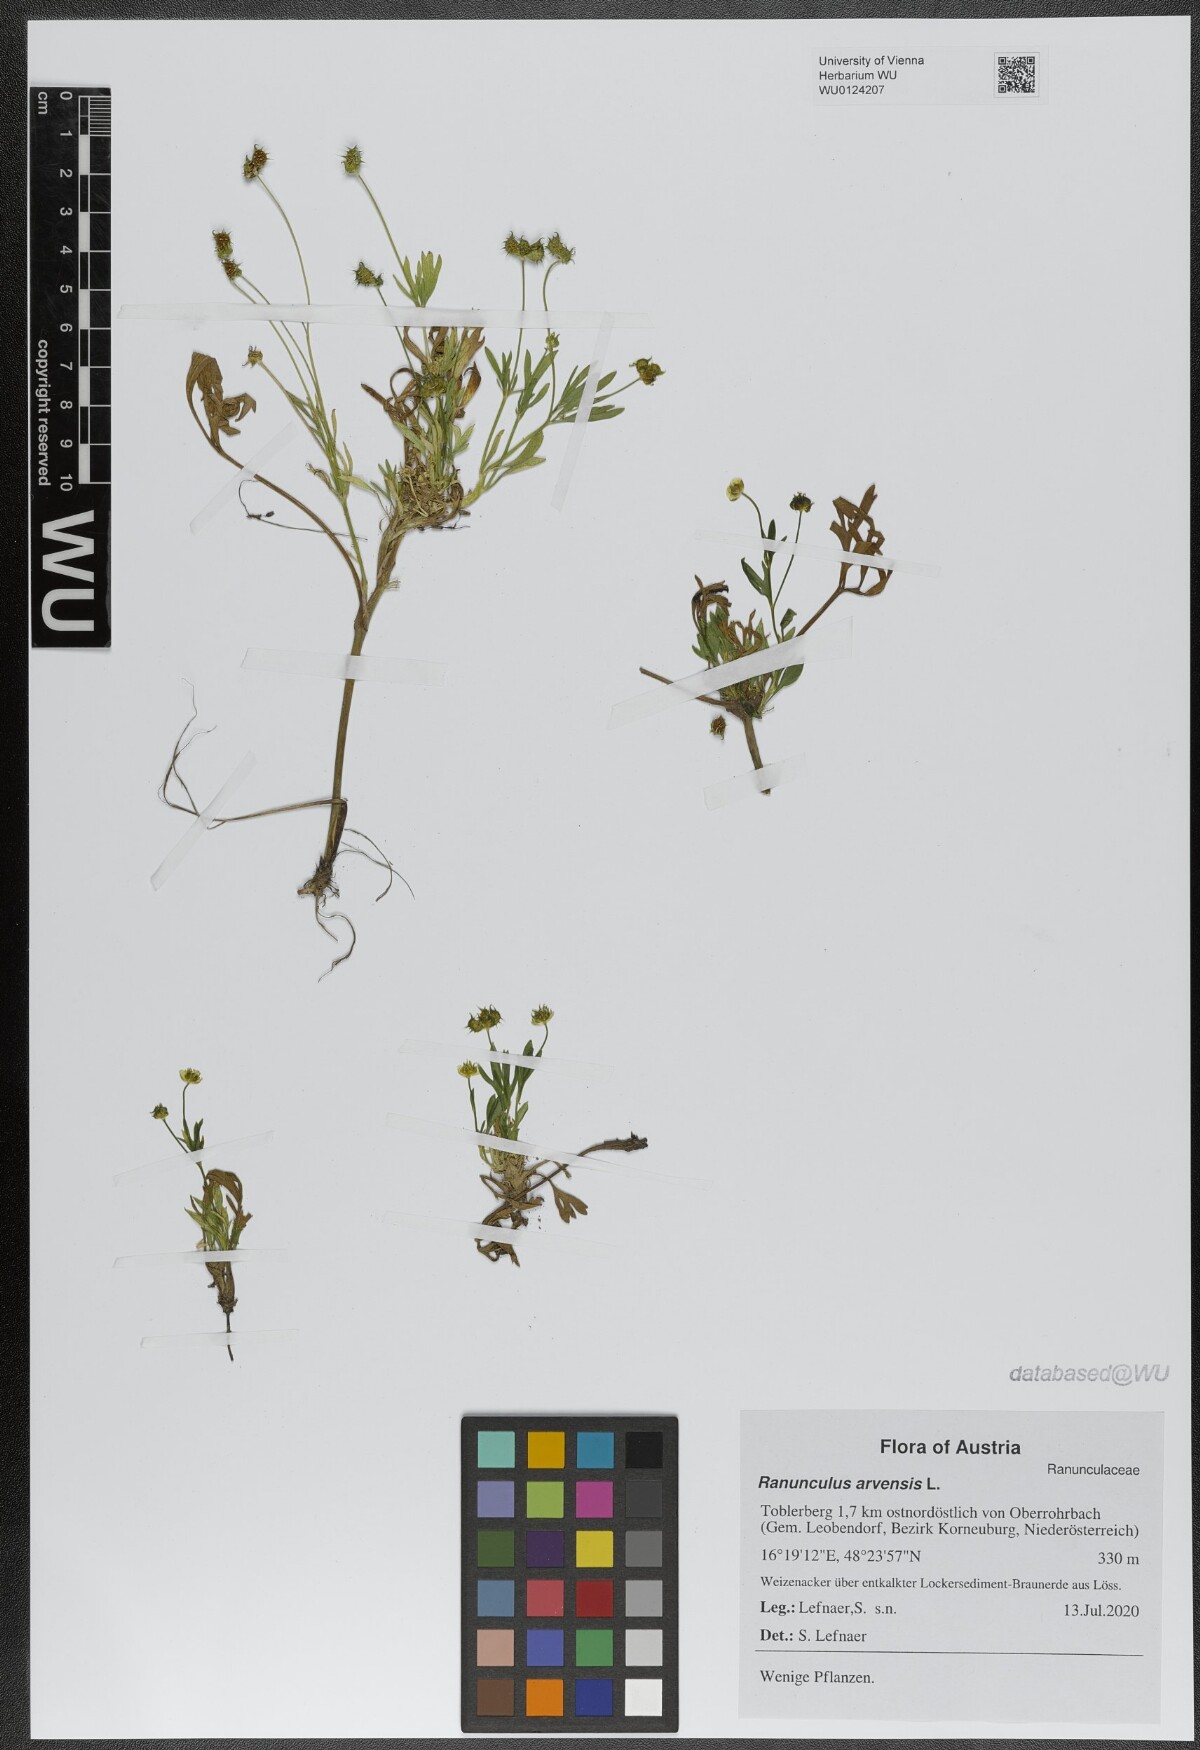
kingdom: Plantae
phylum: Tracheophyta
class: Magnoliopsida
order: Ranunculales
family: Ranunculaceae
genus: Ranunculus
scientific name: Ranunculus arvensis
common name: Corn buttercup
